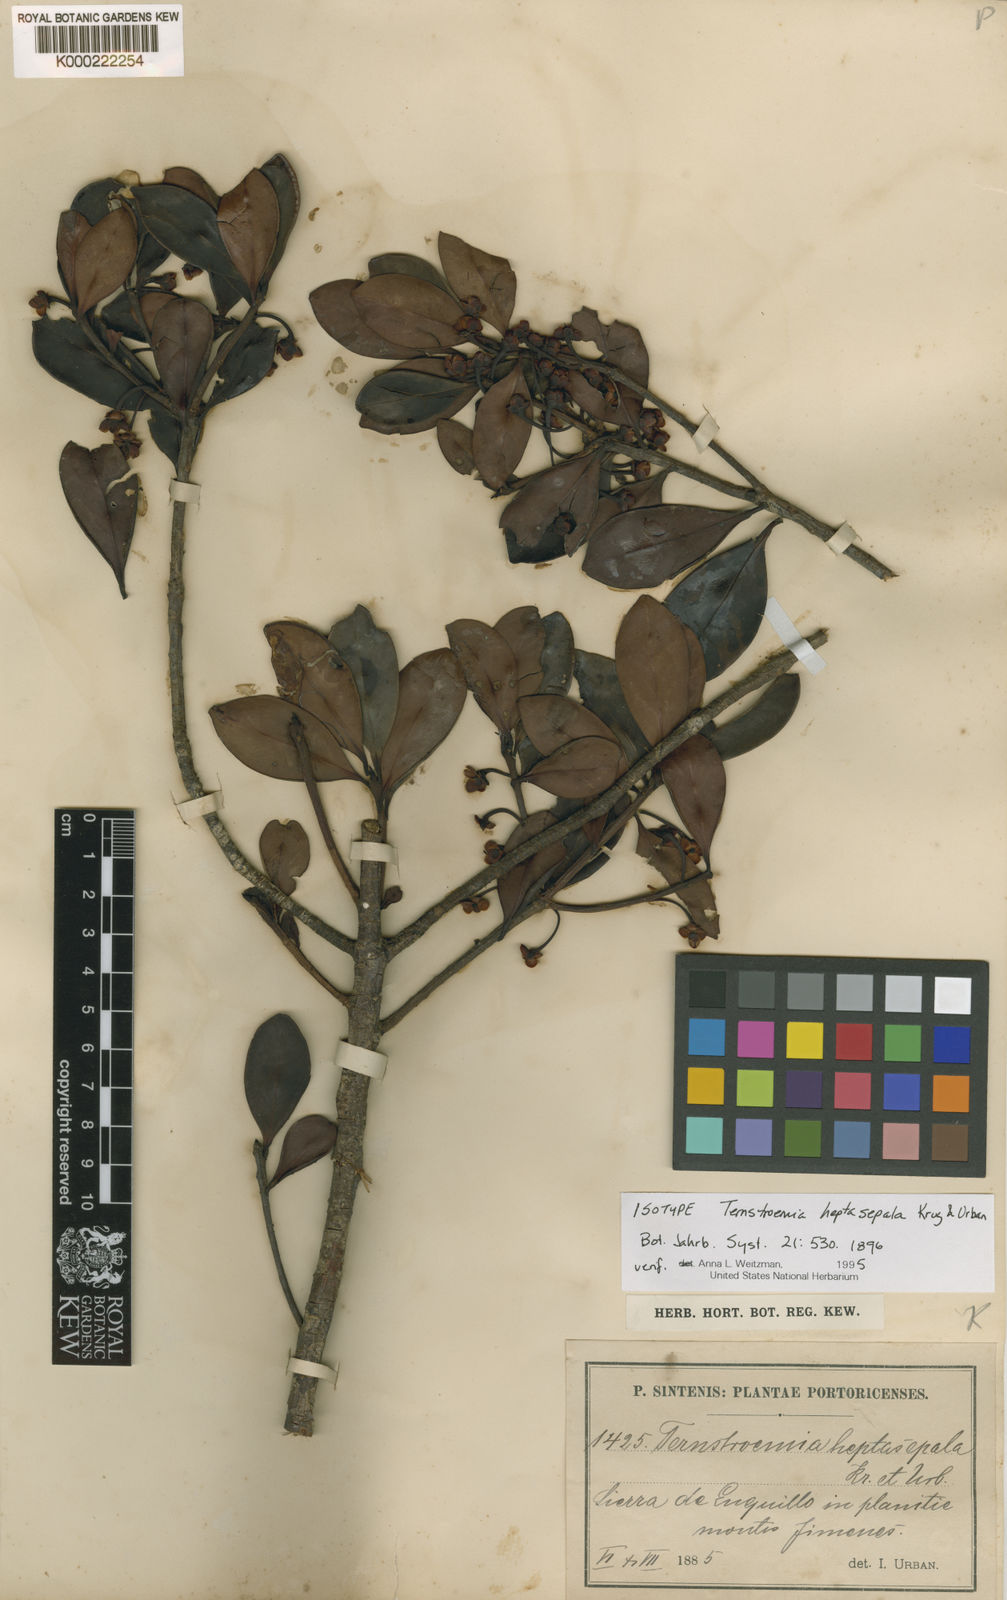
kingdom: Plantae
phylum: Tracheophyta
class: Magnoliopsida
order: Ericales
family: Pentaphylacaceae
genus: Ternstroemia
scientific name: Ternstroemia heptasepala
